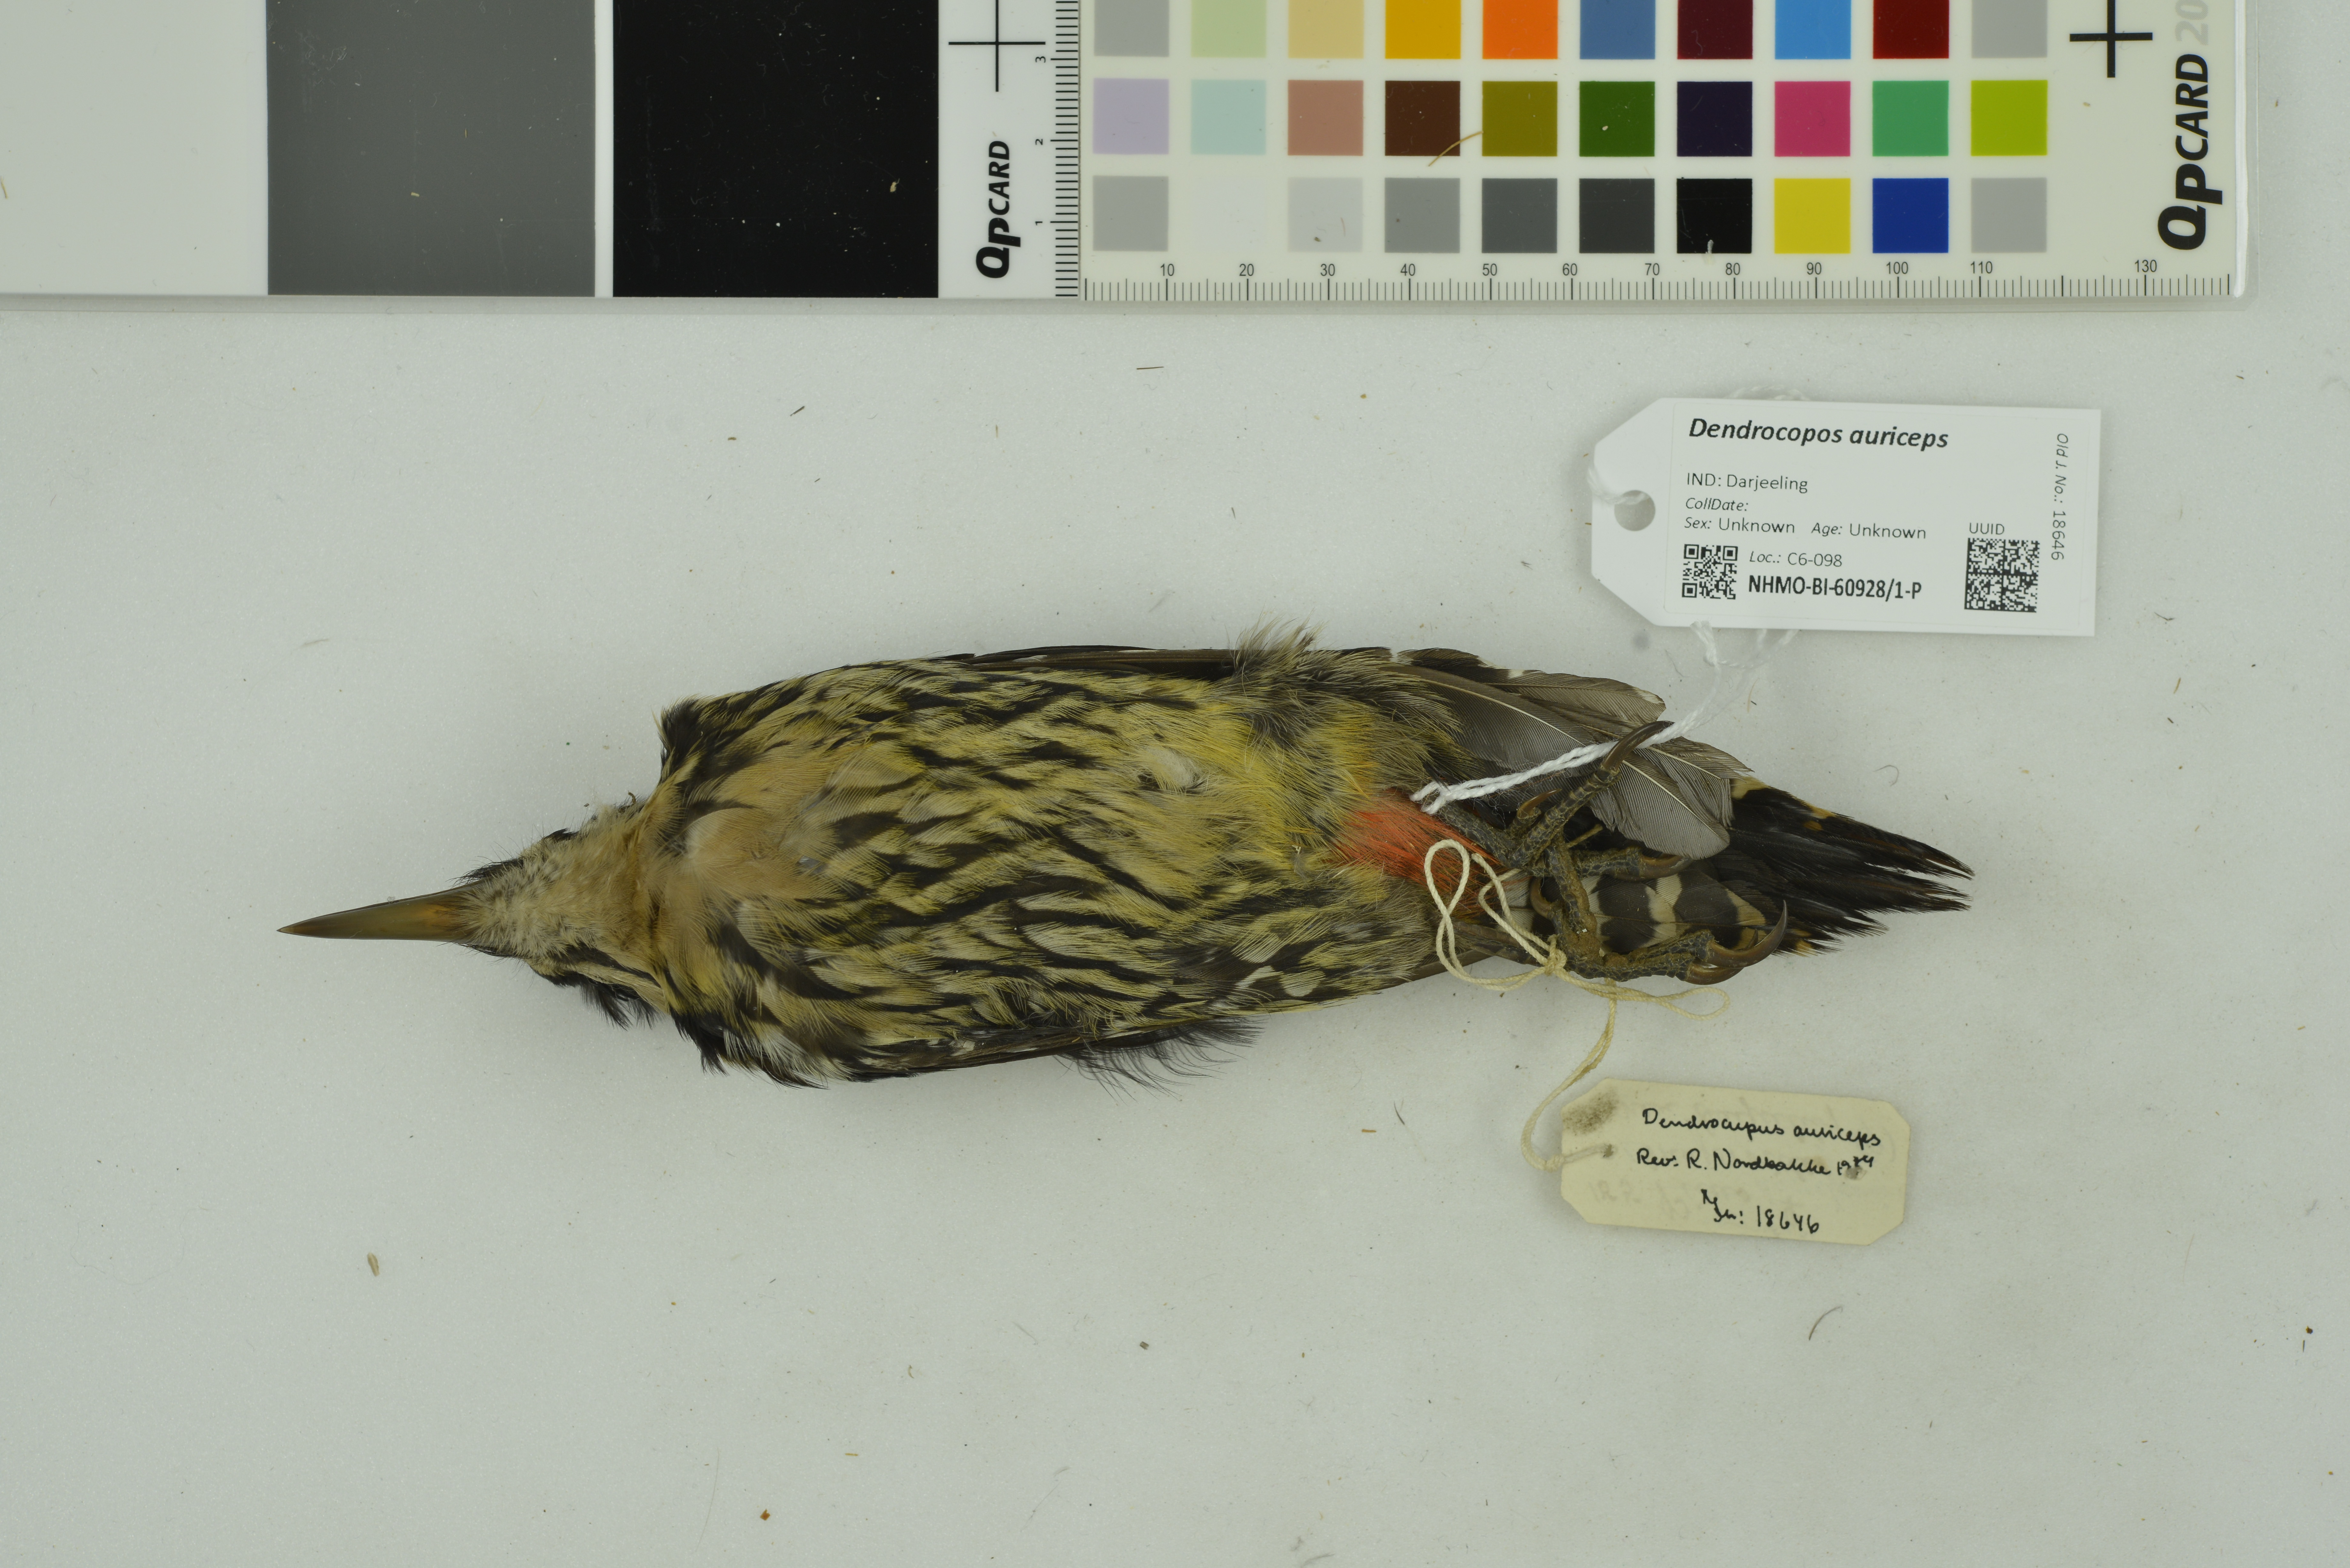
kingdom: Animalia
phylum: Chordata
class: Aves
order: Piciformes
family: Picidae
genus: Dendrocopos
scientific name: Dendrocopos darjellensis
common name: Darjeeling woodpecker
